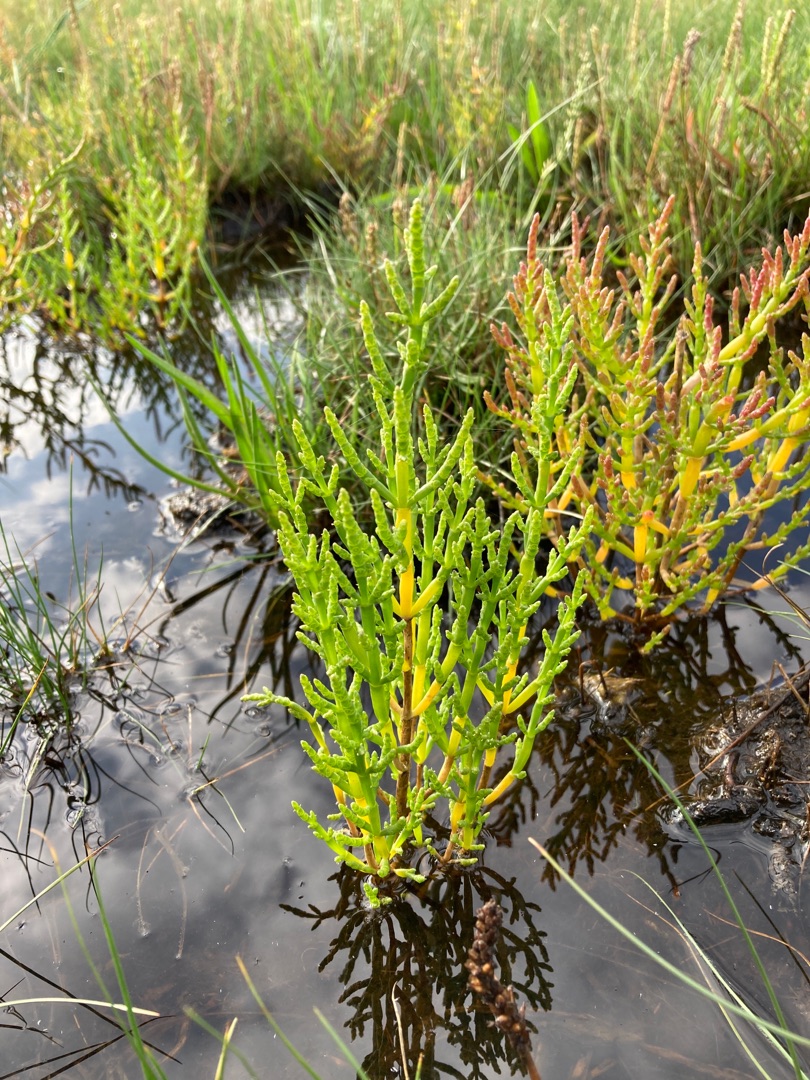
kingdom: Plantae
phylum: Tracheophyta
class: Magnoliopsida
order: Caryophyllales
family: Amaranthaceae
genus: Salicornia
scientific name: Salicornia europaea
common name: Almindelig salturt
